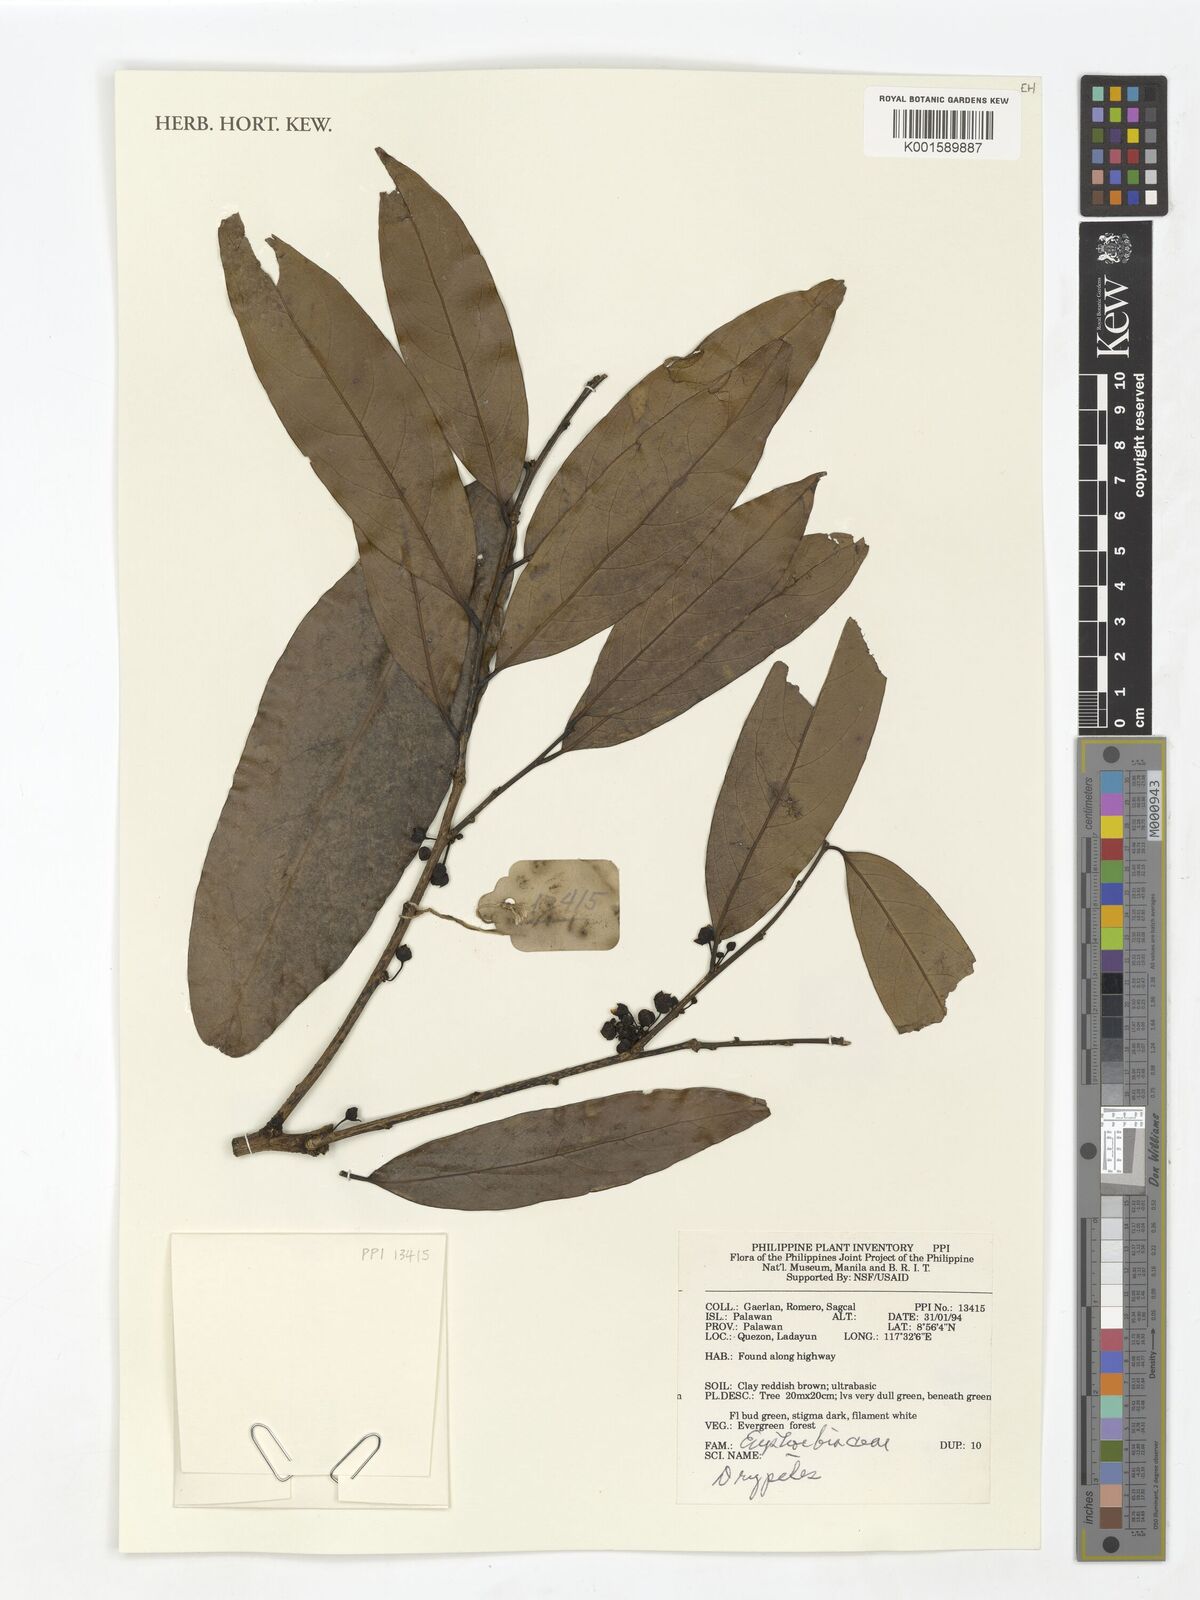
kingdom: Plantae
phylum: Tracheophyta
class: Magnoliopsida
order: Malpighiales
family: Putranjivaceae
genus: Drypetes
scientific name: Drypetes
